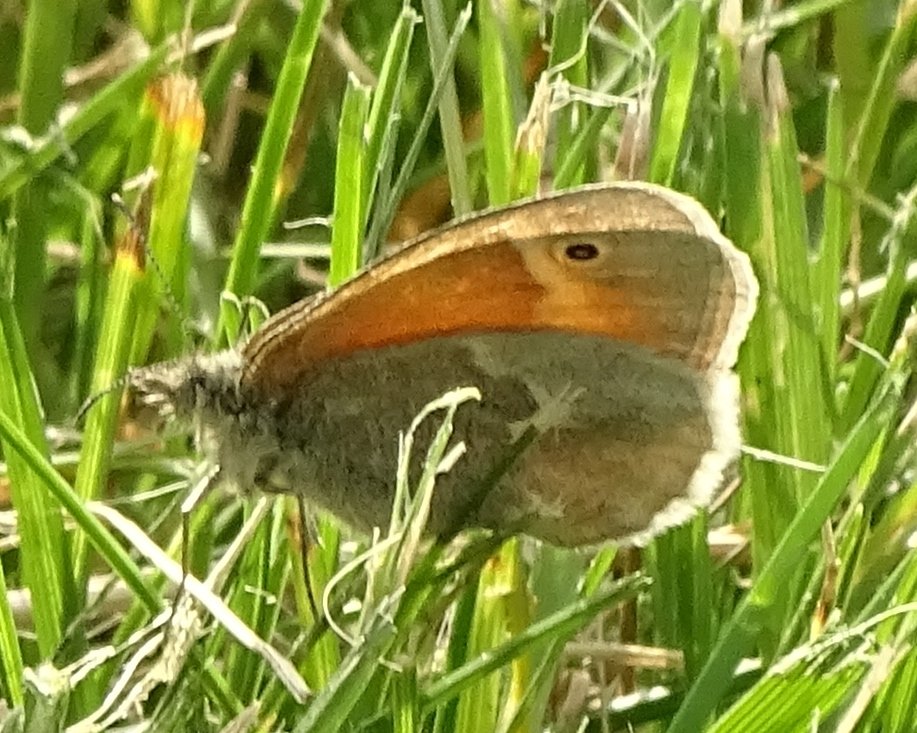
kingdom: Animalia
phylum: Arthropoda
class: Insecta
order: Lepidoptera
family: Nymphalidae
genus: Coenonympha
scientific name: Coenonympha tullia
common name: Large Heath
